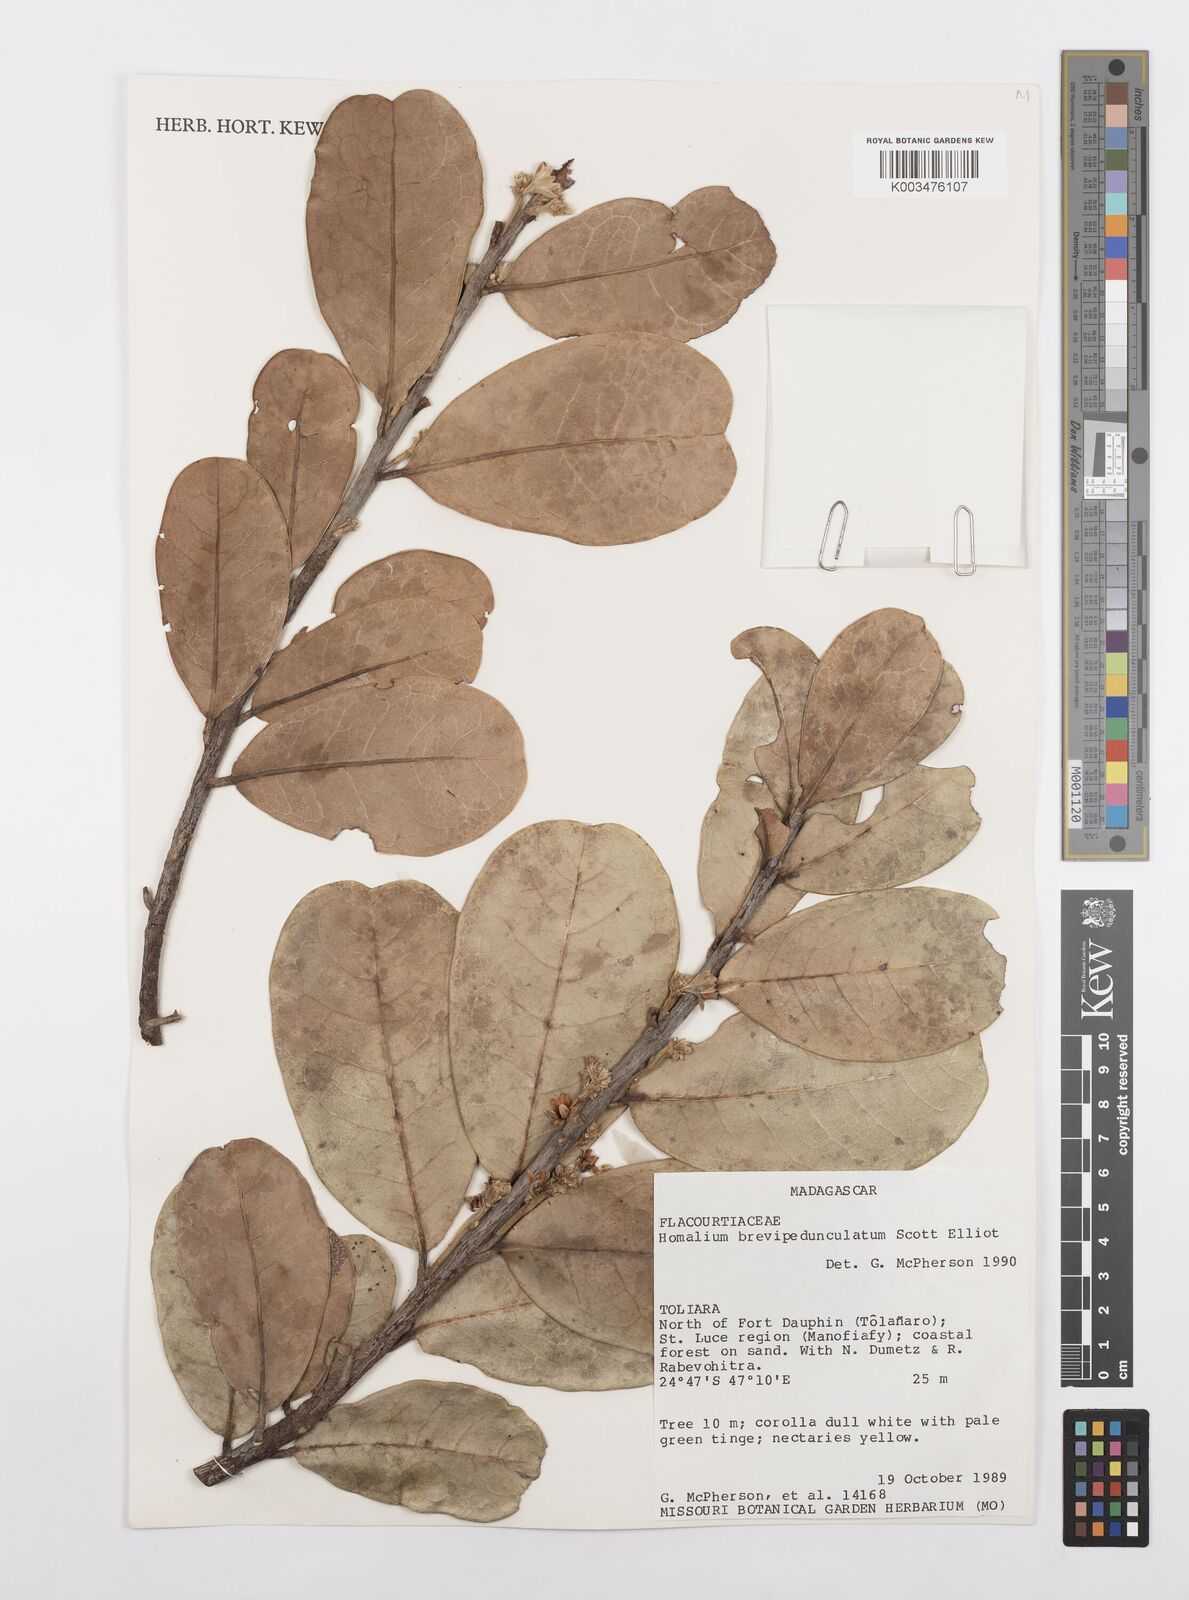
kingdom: Plantae
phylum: Tracheophyta
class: Magnoliopsida
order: Malpighiales
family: Salicaceae
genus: Homalium
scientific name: Homalium brevipedunculatum
